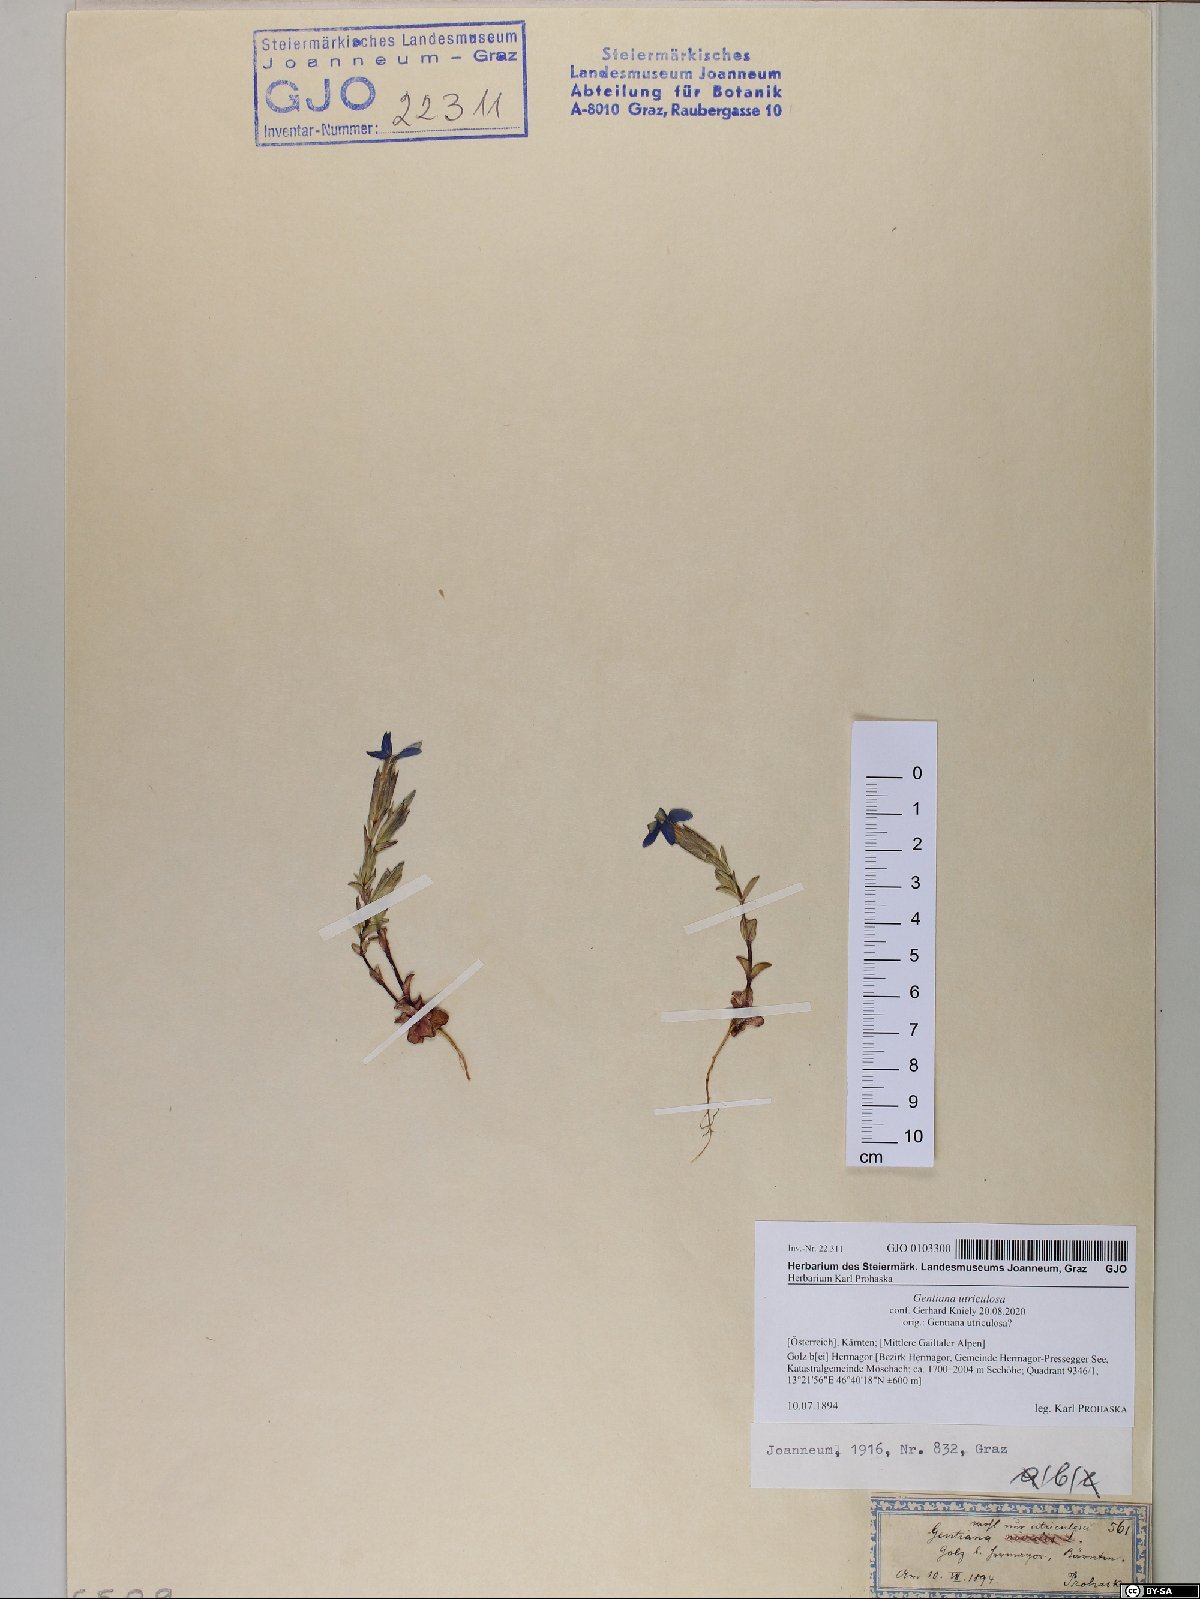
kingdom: Plantae
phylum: Tracheophyta
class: Magnoliopsida
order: Gentianales
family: Gentianaceae
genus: Gentiana
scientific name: Gentiana utriculosa
